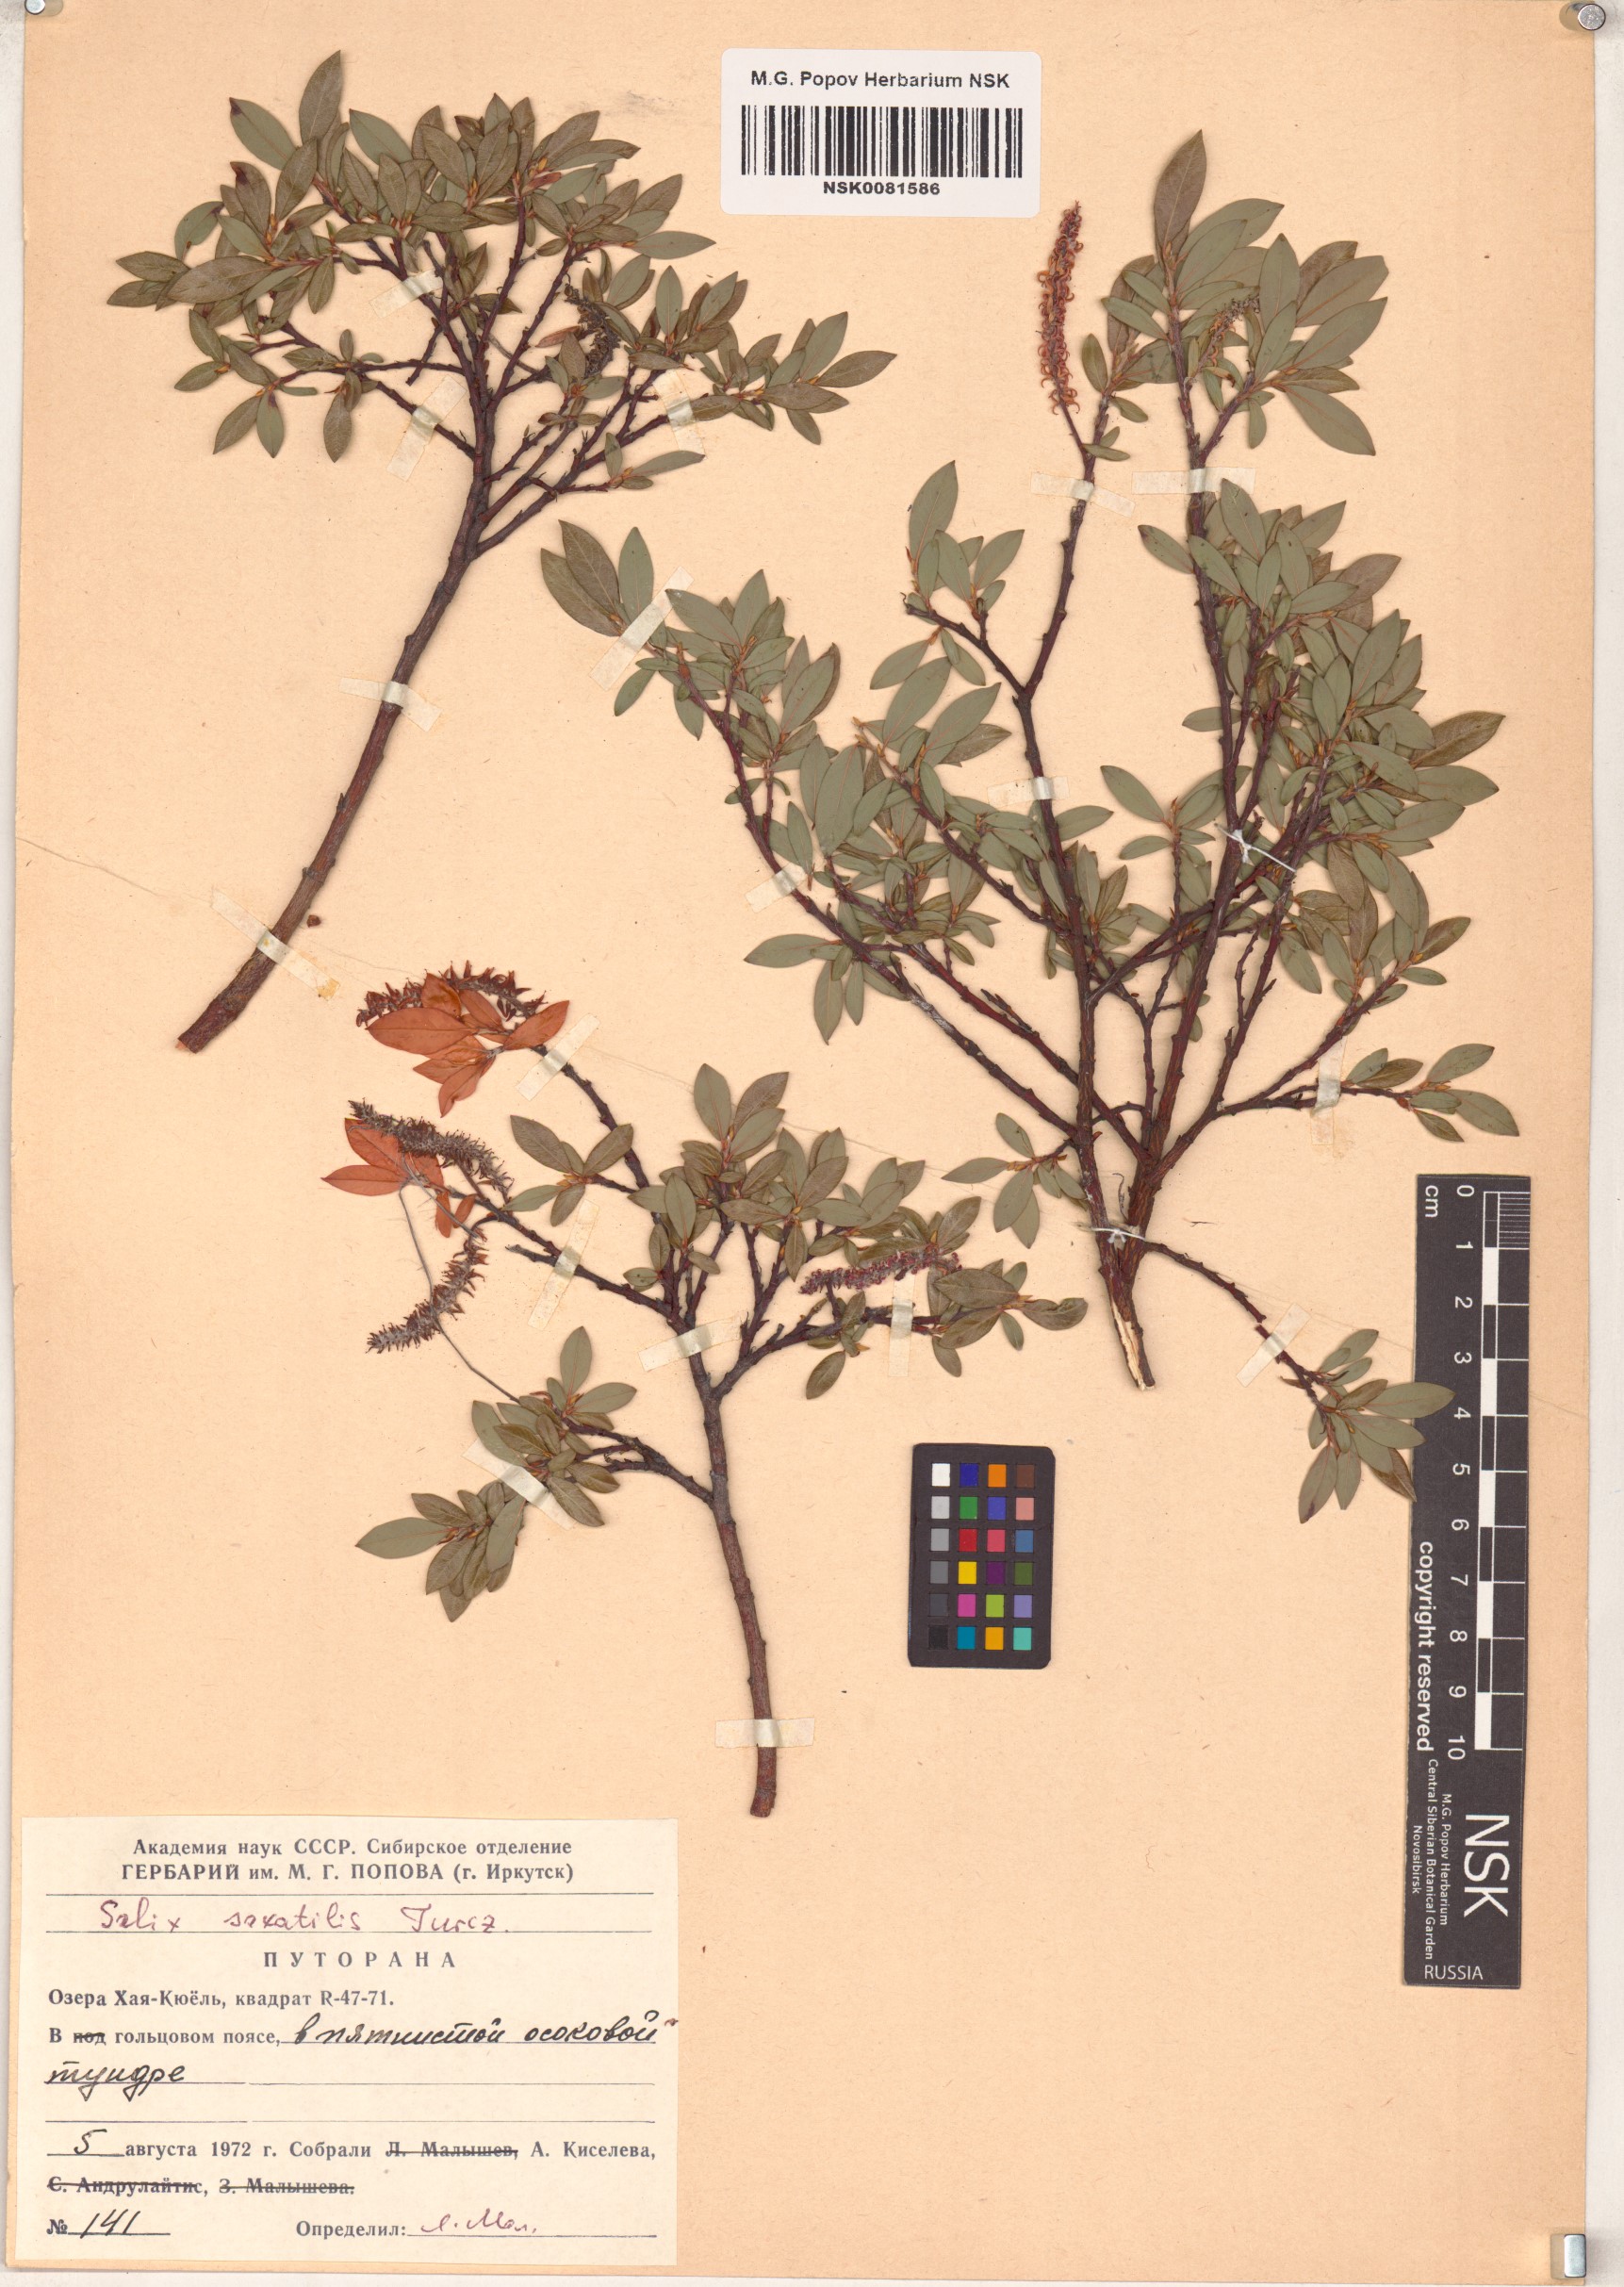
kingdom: Plantae
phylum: Tracheophyta
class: Magnoliopsida
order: Malpighiales
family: Salicaceae
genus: Salix
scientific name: Salix saxatilis
